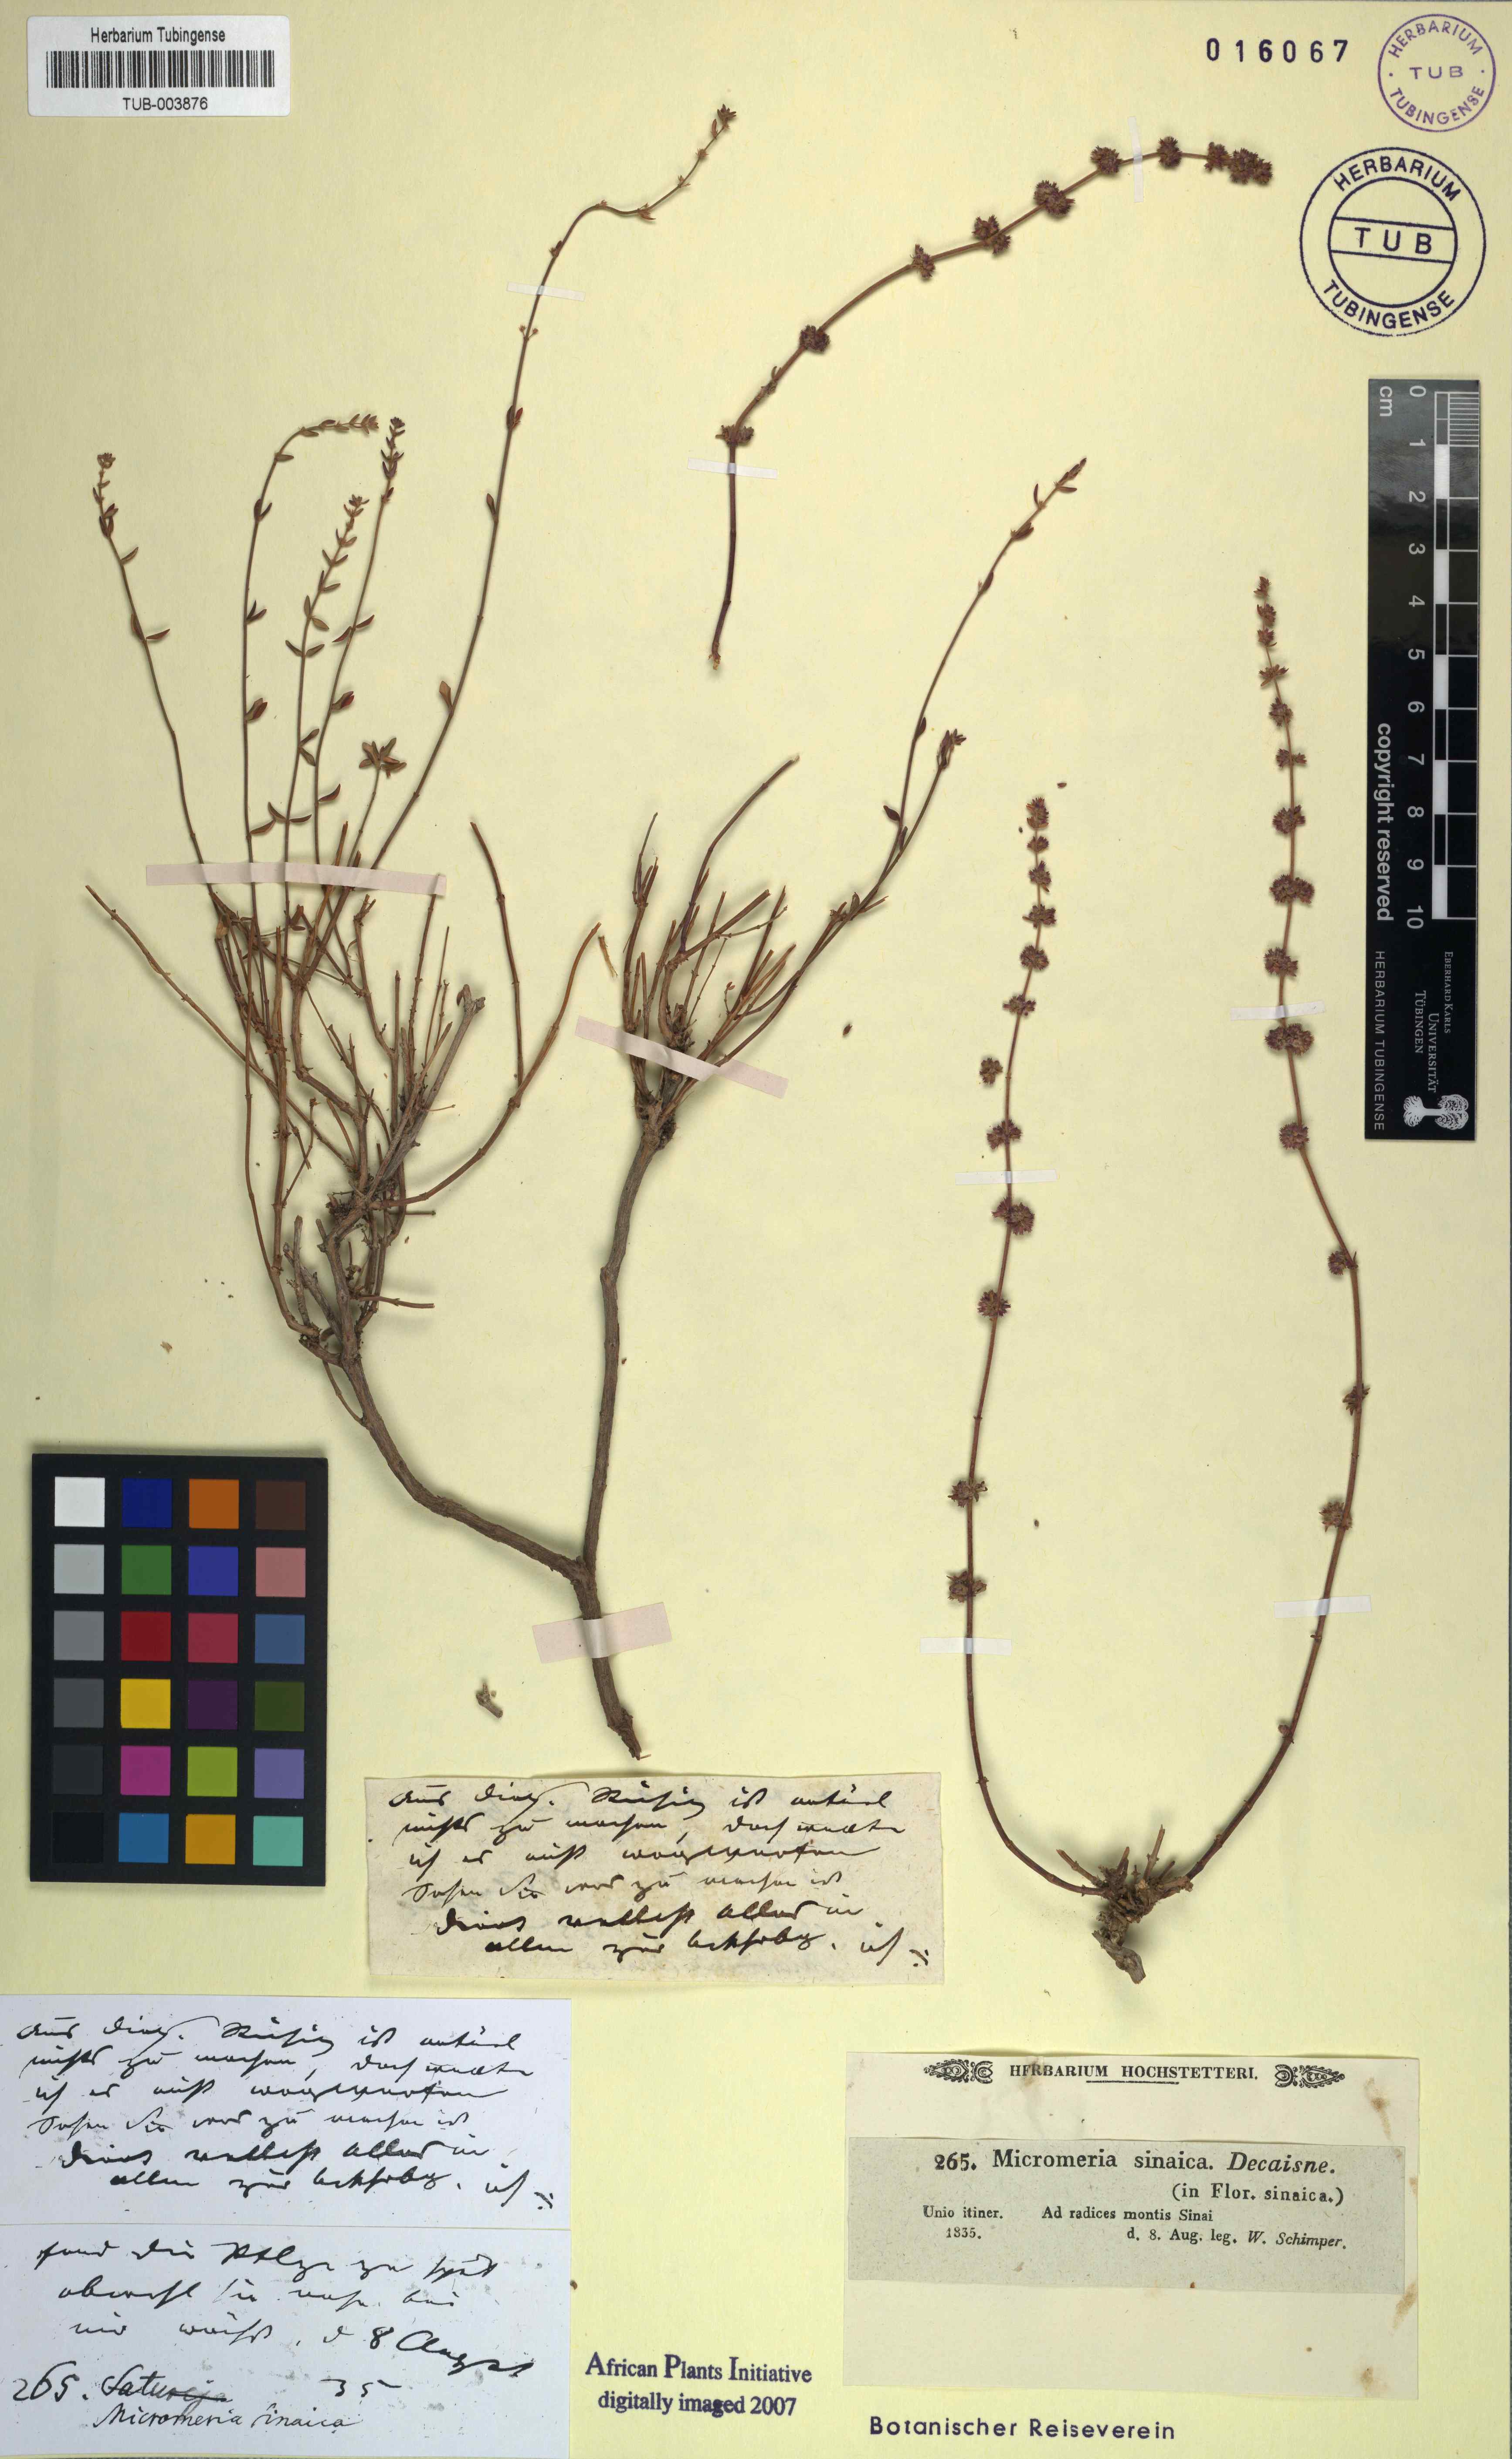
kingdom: Plantae
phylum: Tracheophyta
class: Magnoliopsida
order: Lamiales
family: Lamiaceae
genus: Micromeria
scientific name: Micromeria sinaica
